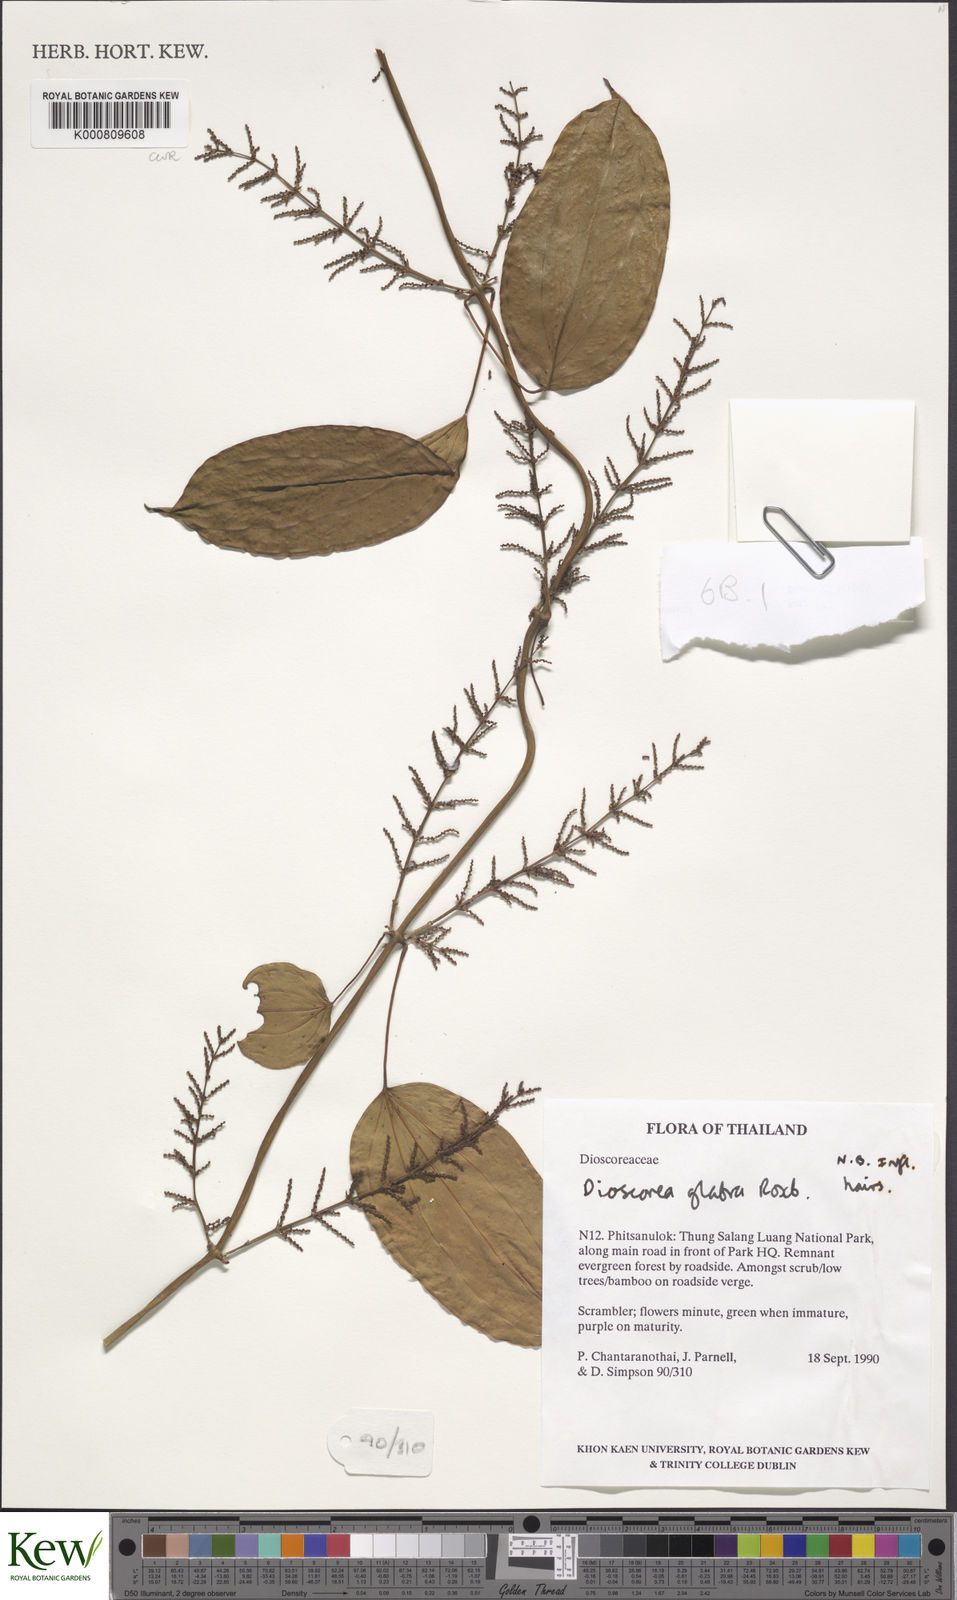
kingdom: Plantae
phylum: Tracheophyta
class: Liliopsida
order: Dioscoreales
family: Dioscoreaceae
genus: Dioscorea
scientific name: Dioscorea glabra
